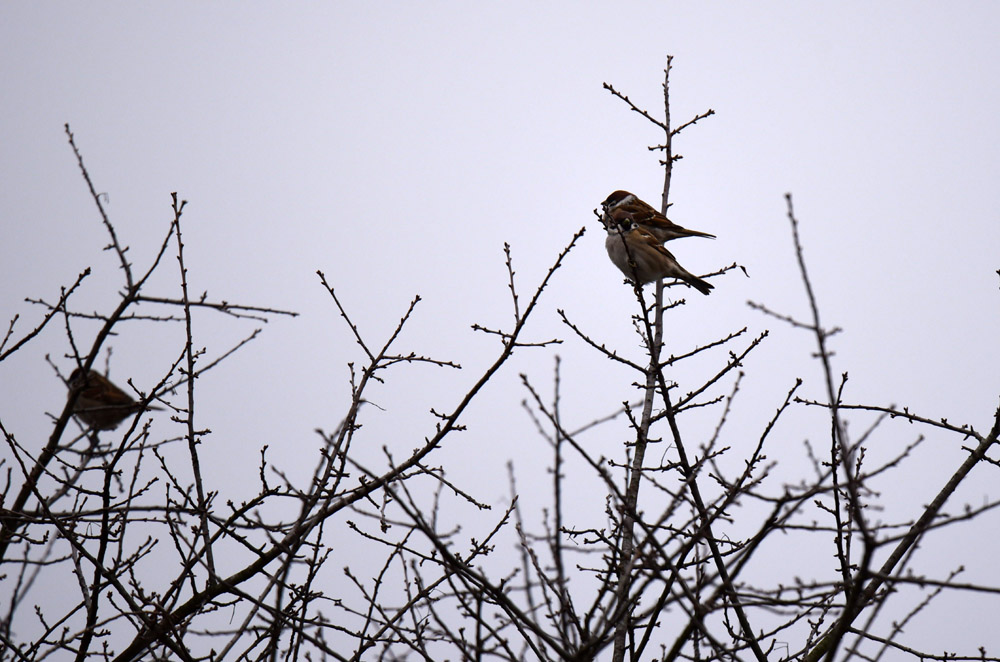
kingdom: Animalia
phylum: Chordata
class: Aves
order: Passeriformes
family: Passeridae
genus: Passer
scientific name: Passer montanus
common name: Eurasian tree sparrow
